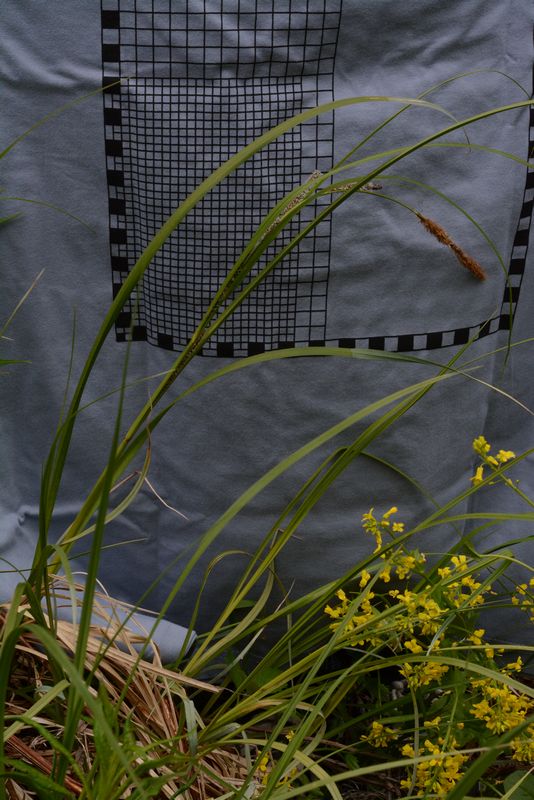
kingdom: Plantae
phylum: Tracheophyta
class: Liliopsida
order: Poales
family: Cyperaceae
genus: Carex
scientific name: Carex aquatilis
